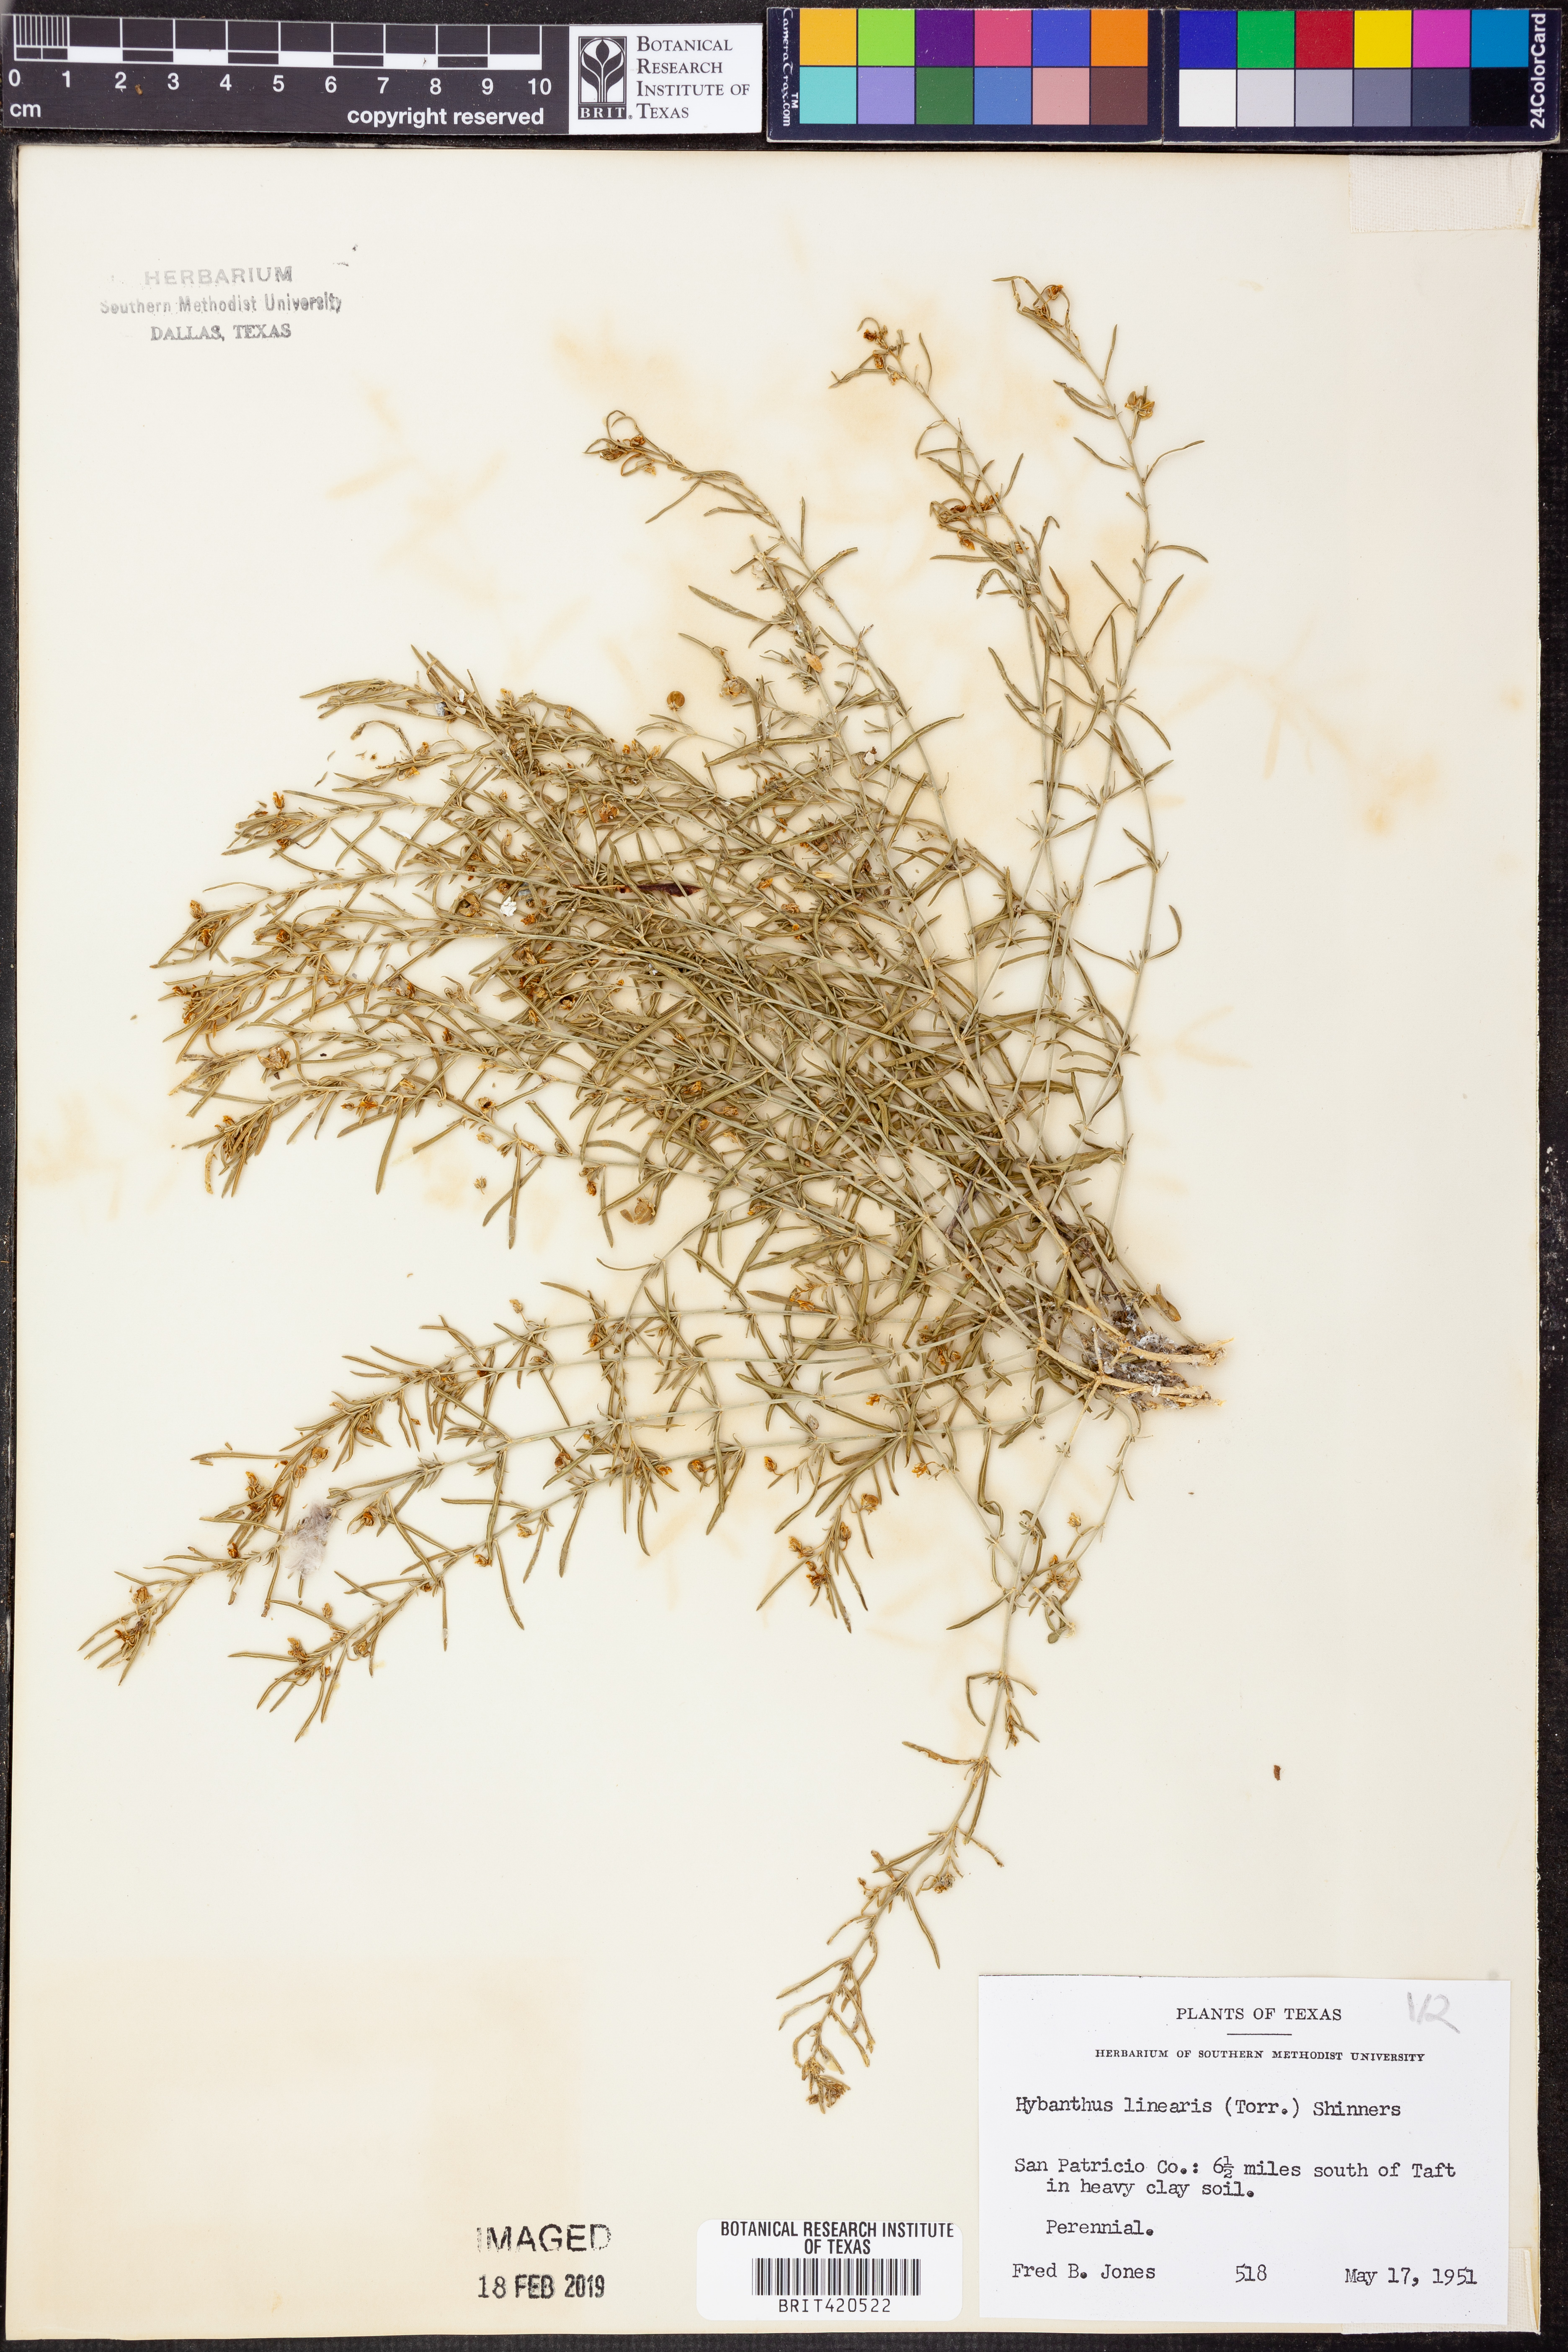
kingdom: Plantae
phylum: Tracheophyta
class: Magnoliopsida
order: Malpighiales
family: Violaceae
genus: Pombalia
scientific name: Pombalia verticillata
